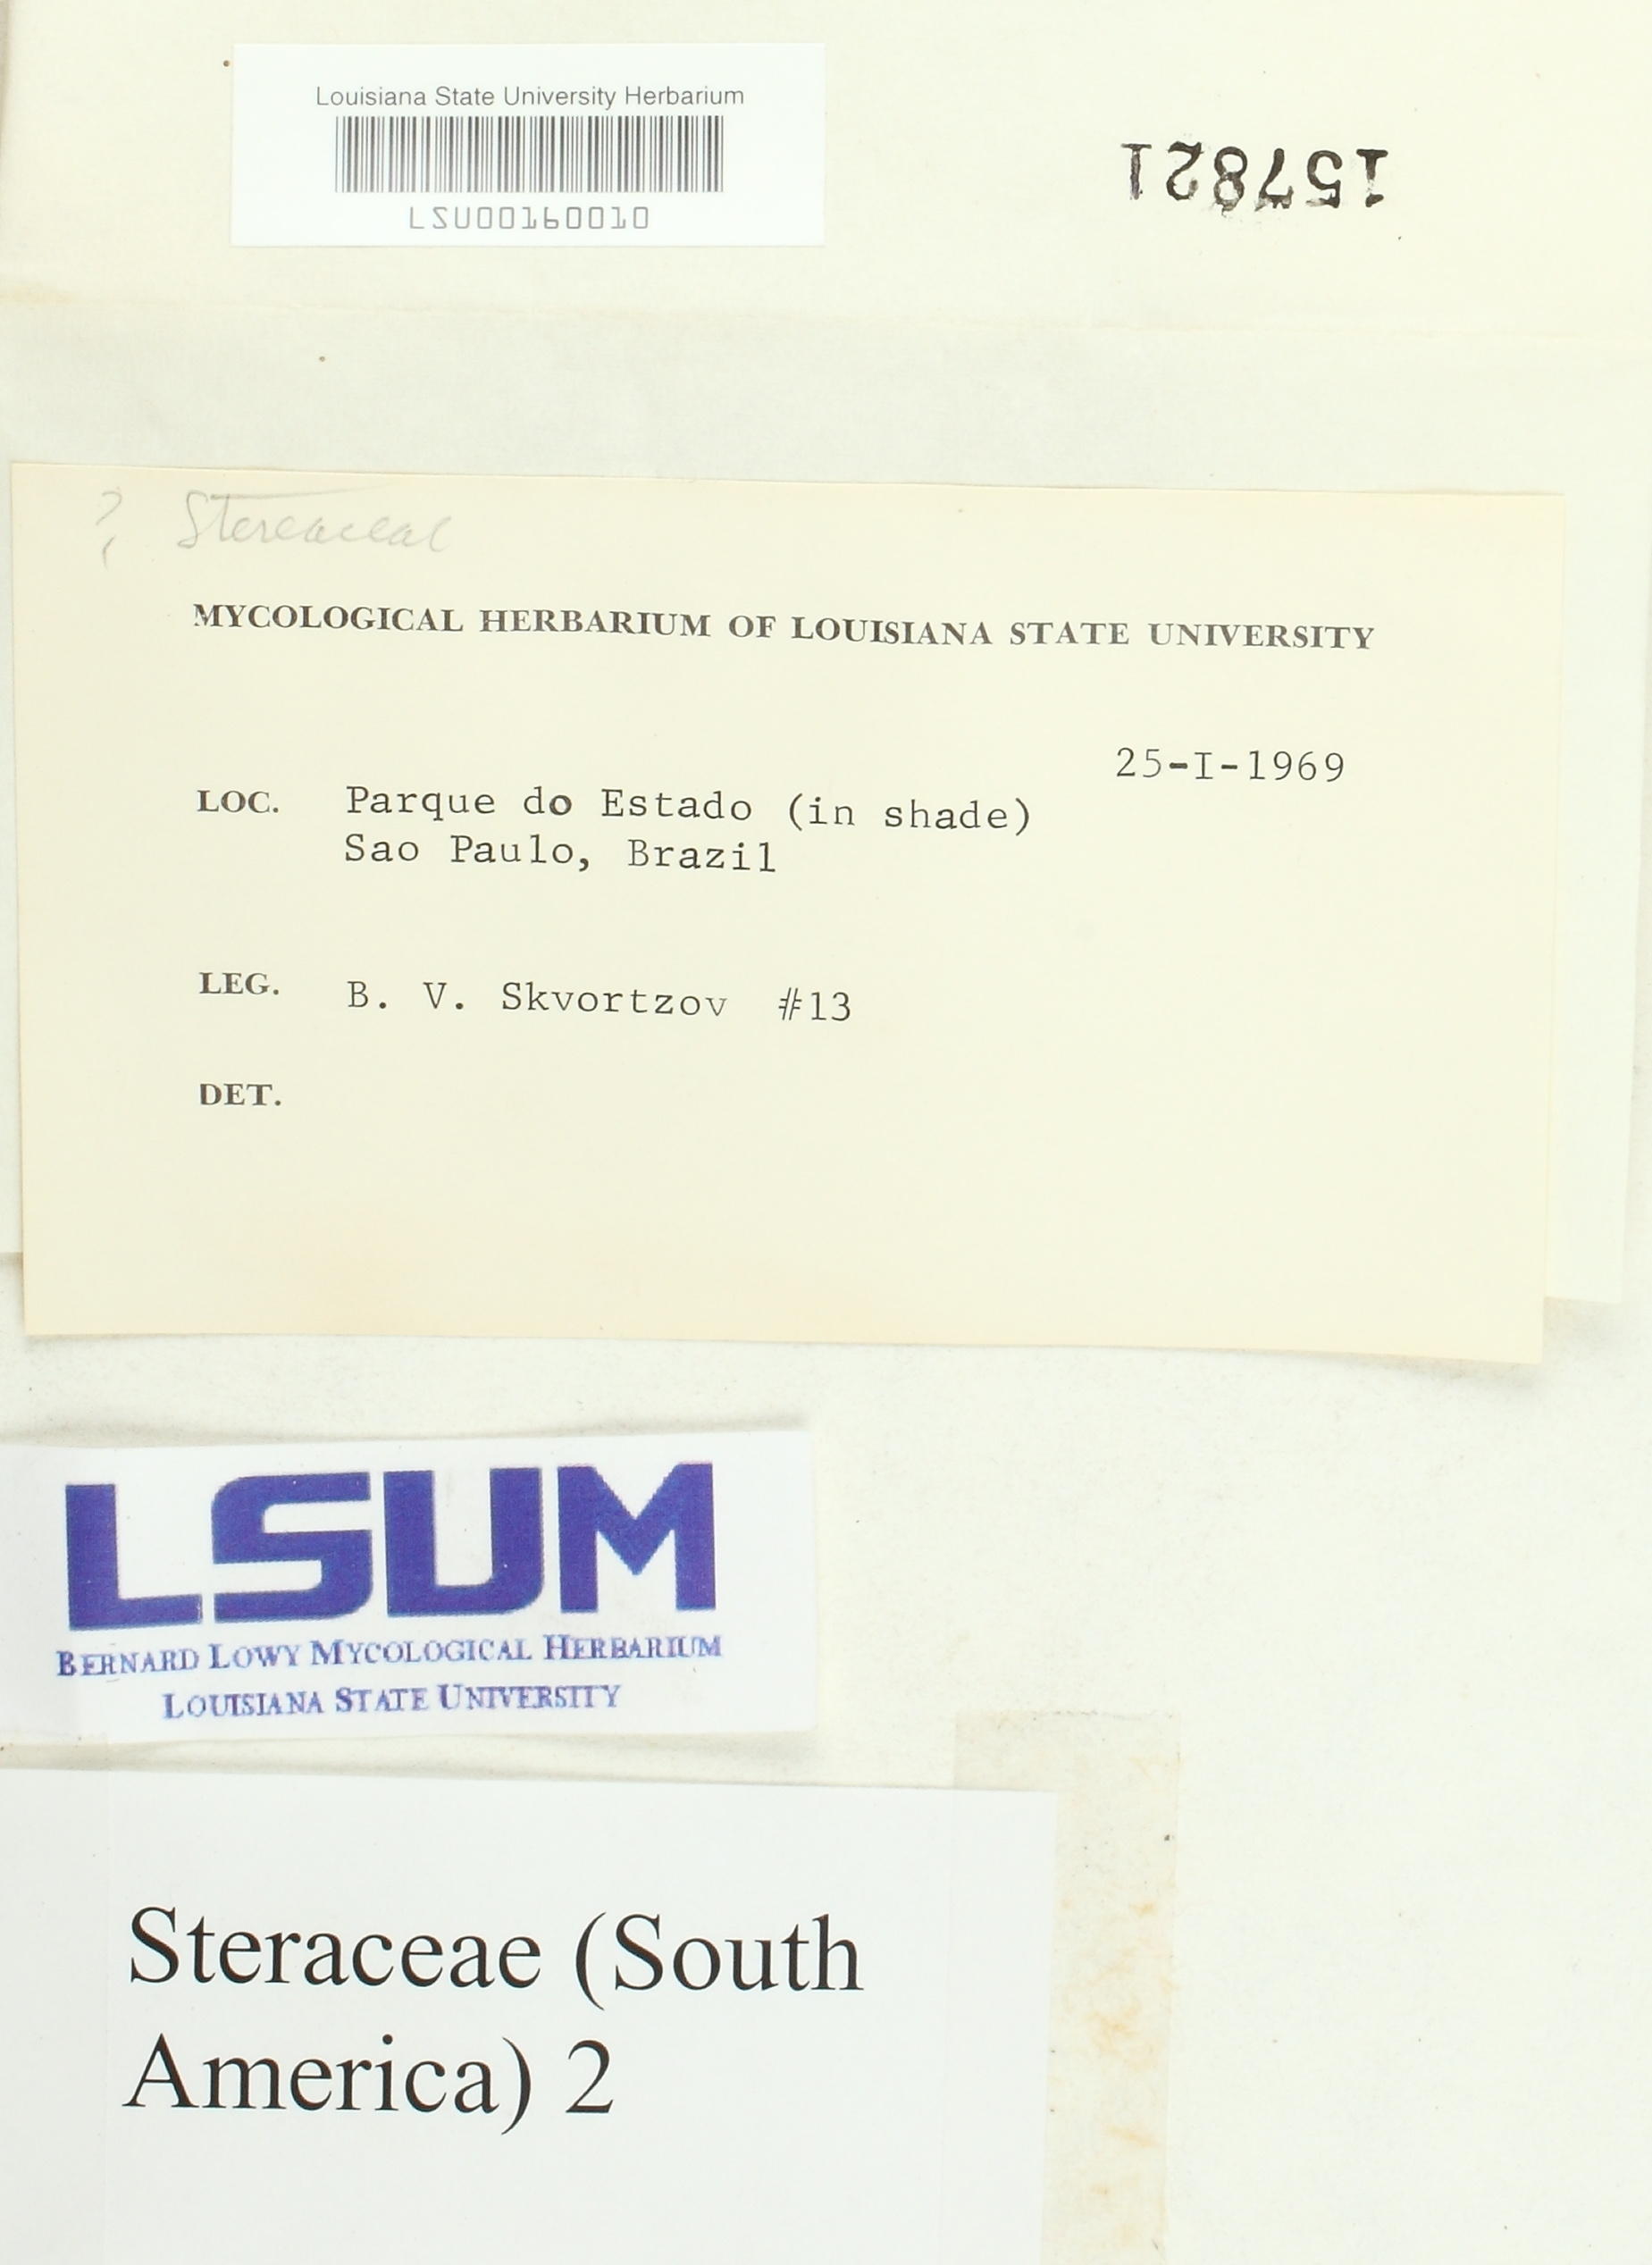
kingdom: Fungi
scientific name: Fungi
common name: Fungi
